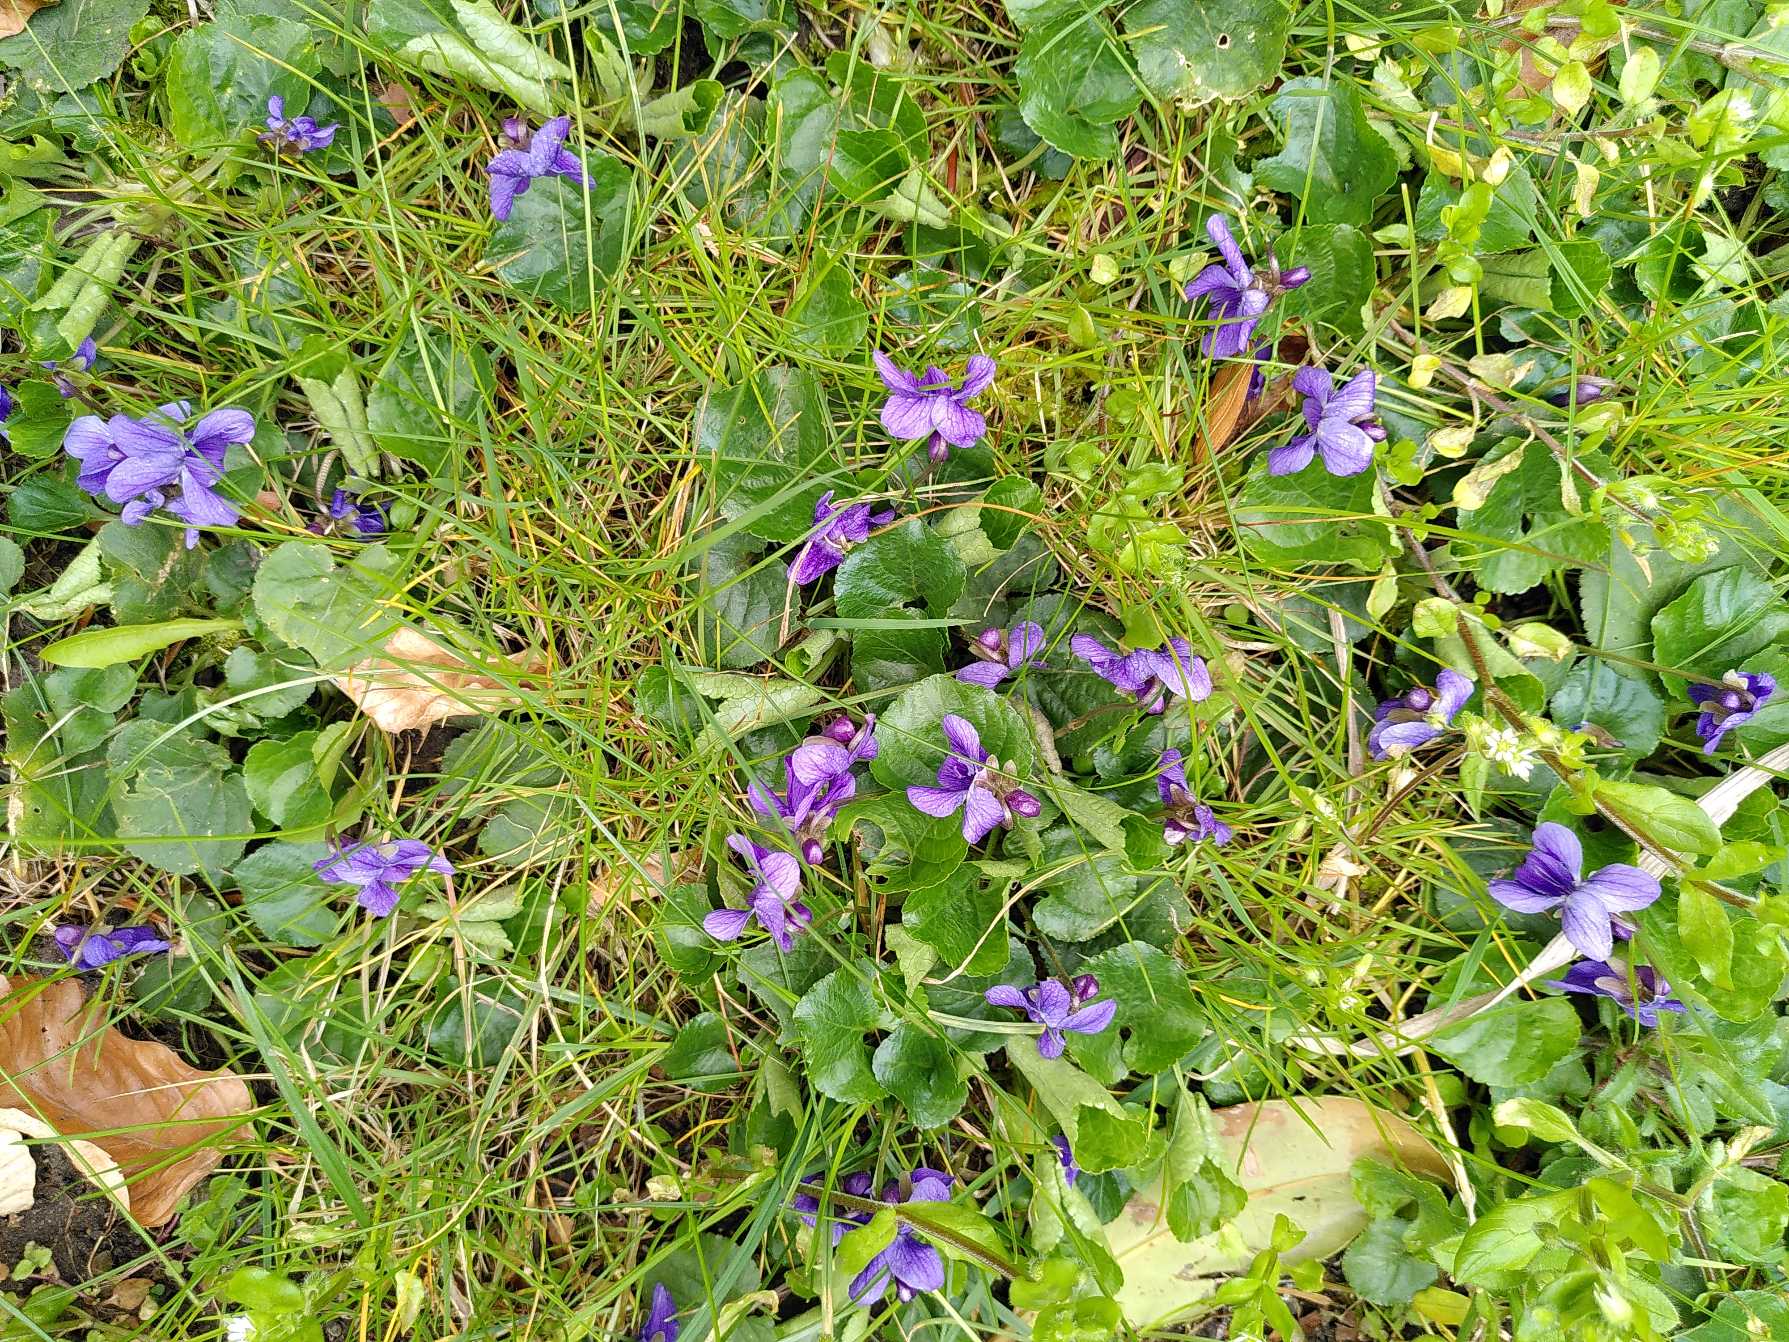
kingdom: Plantae
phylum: Tracheophyta
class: Magnoliopsida
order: Malpighiales
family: Violaceae
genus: Viola
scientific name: Viola odorata
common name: Marts-viol
